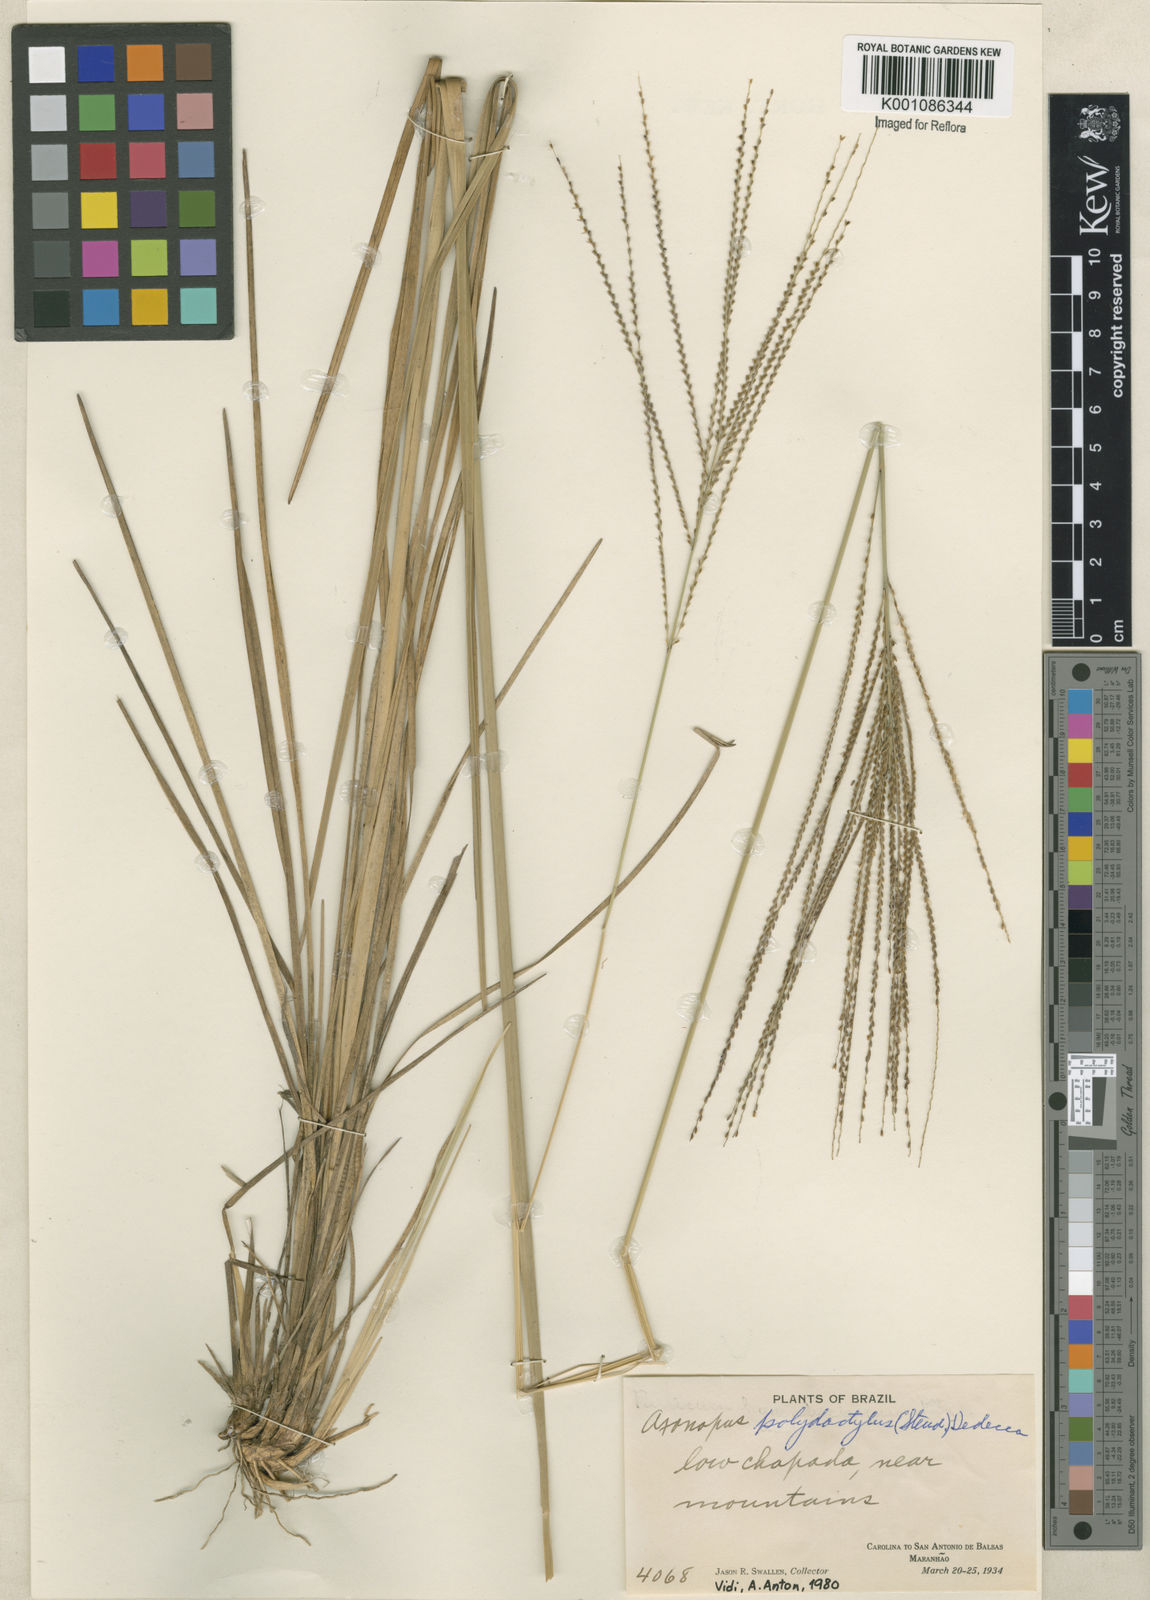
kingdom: Plantae
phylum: Tracheophyta
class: Liliopsida
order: Poales
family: Poaceae
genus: Axonopus
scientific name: Axonopus polydactylus
